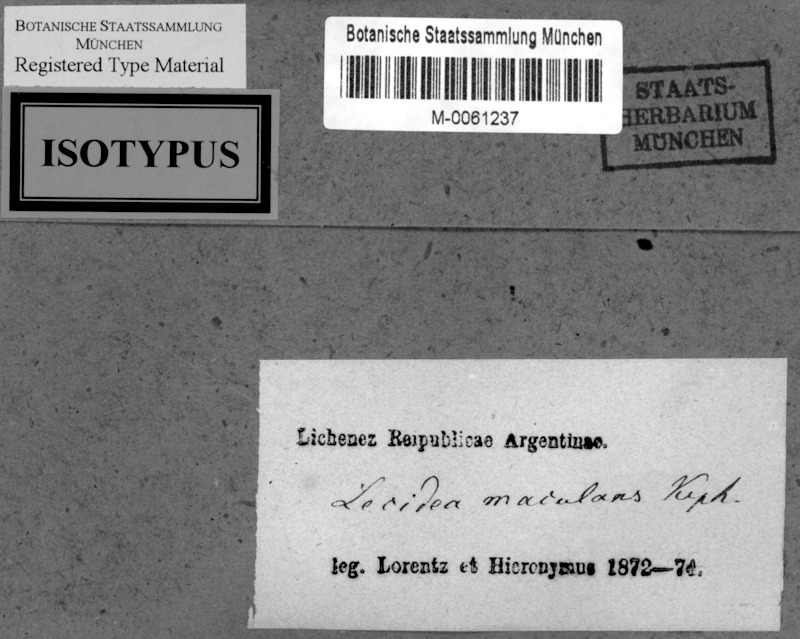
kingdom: Fungi
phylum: Ascomycota
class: Lecanoromycetes
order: Caliciales
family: Physciaceae
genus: Rinodina
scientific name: Rinodina maculans
